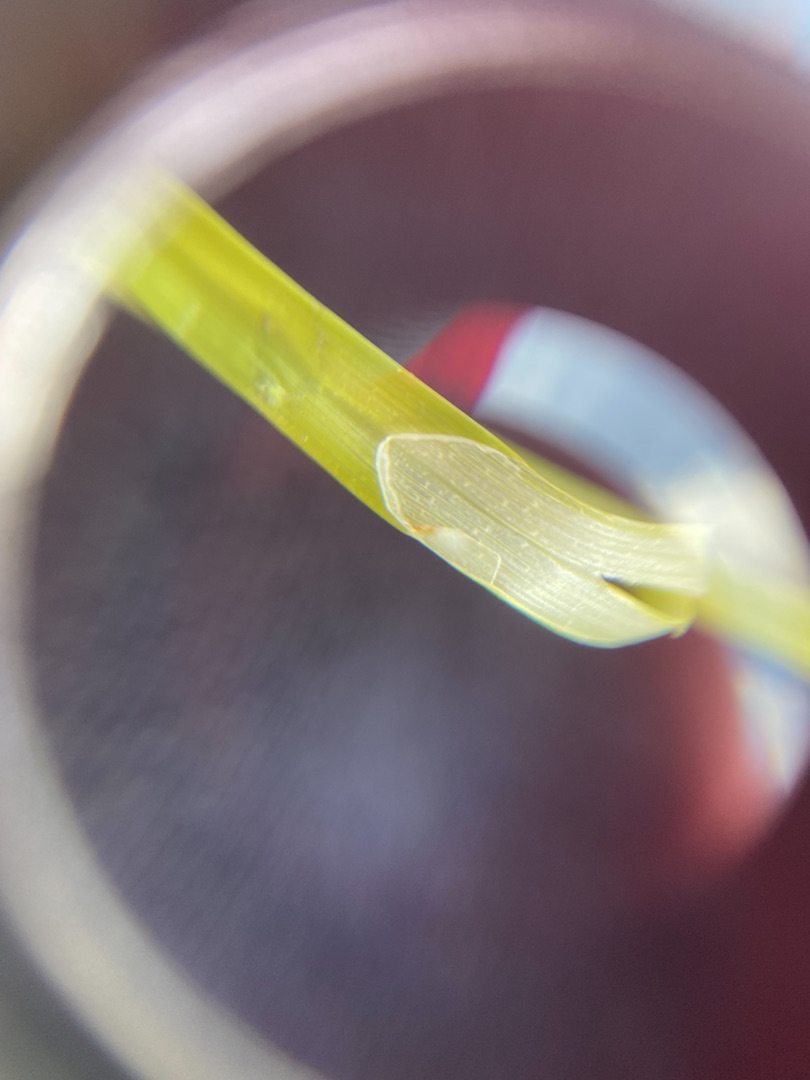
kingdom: Plantae
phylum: Tracheophyta
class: Liliopsida
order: Poales
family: Cyperaceae
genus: Carex
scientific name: Carex otrubae
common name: Sylt-star
